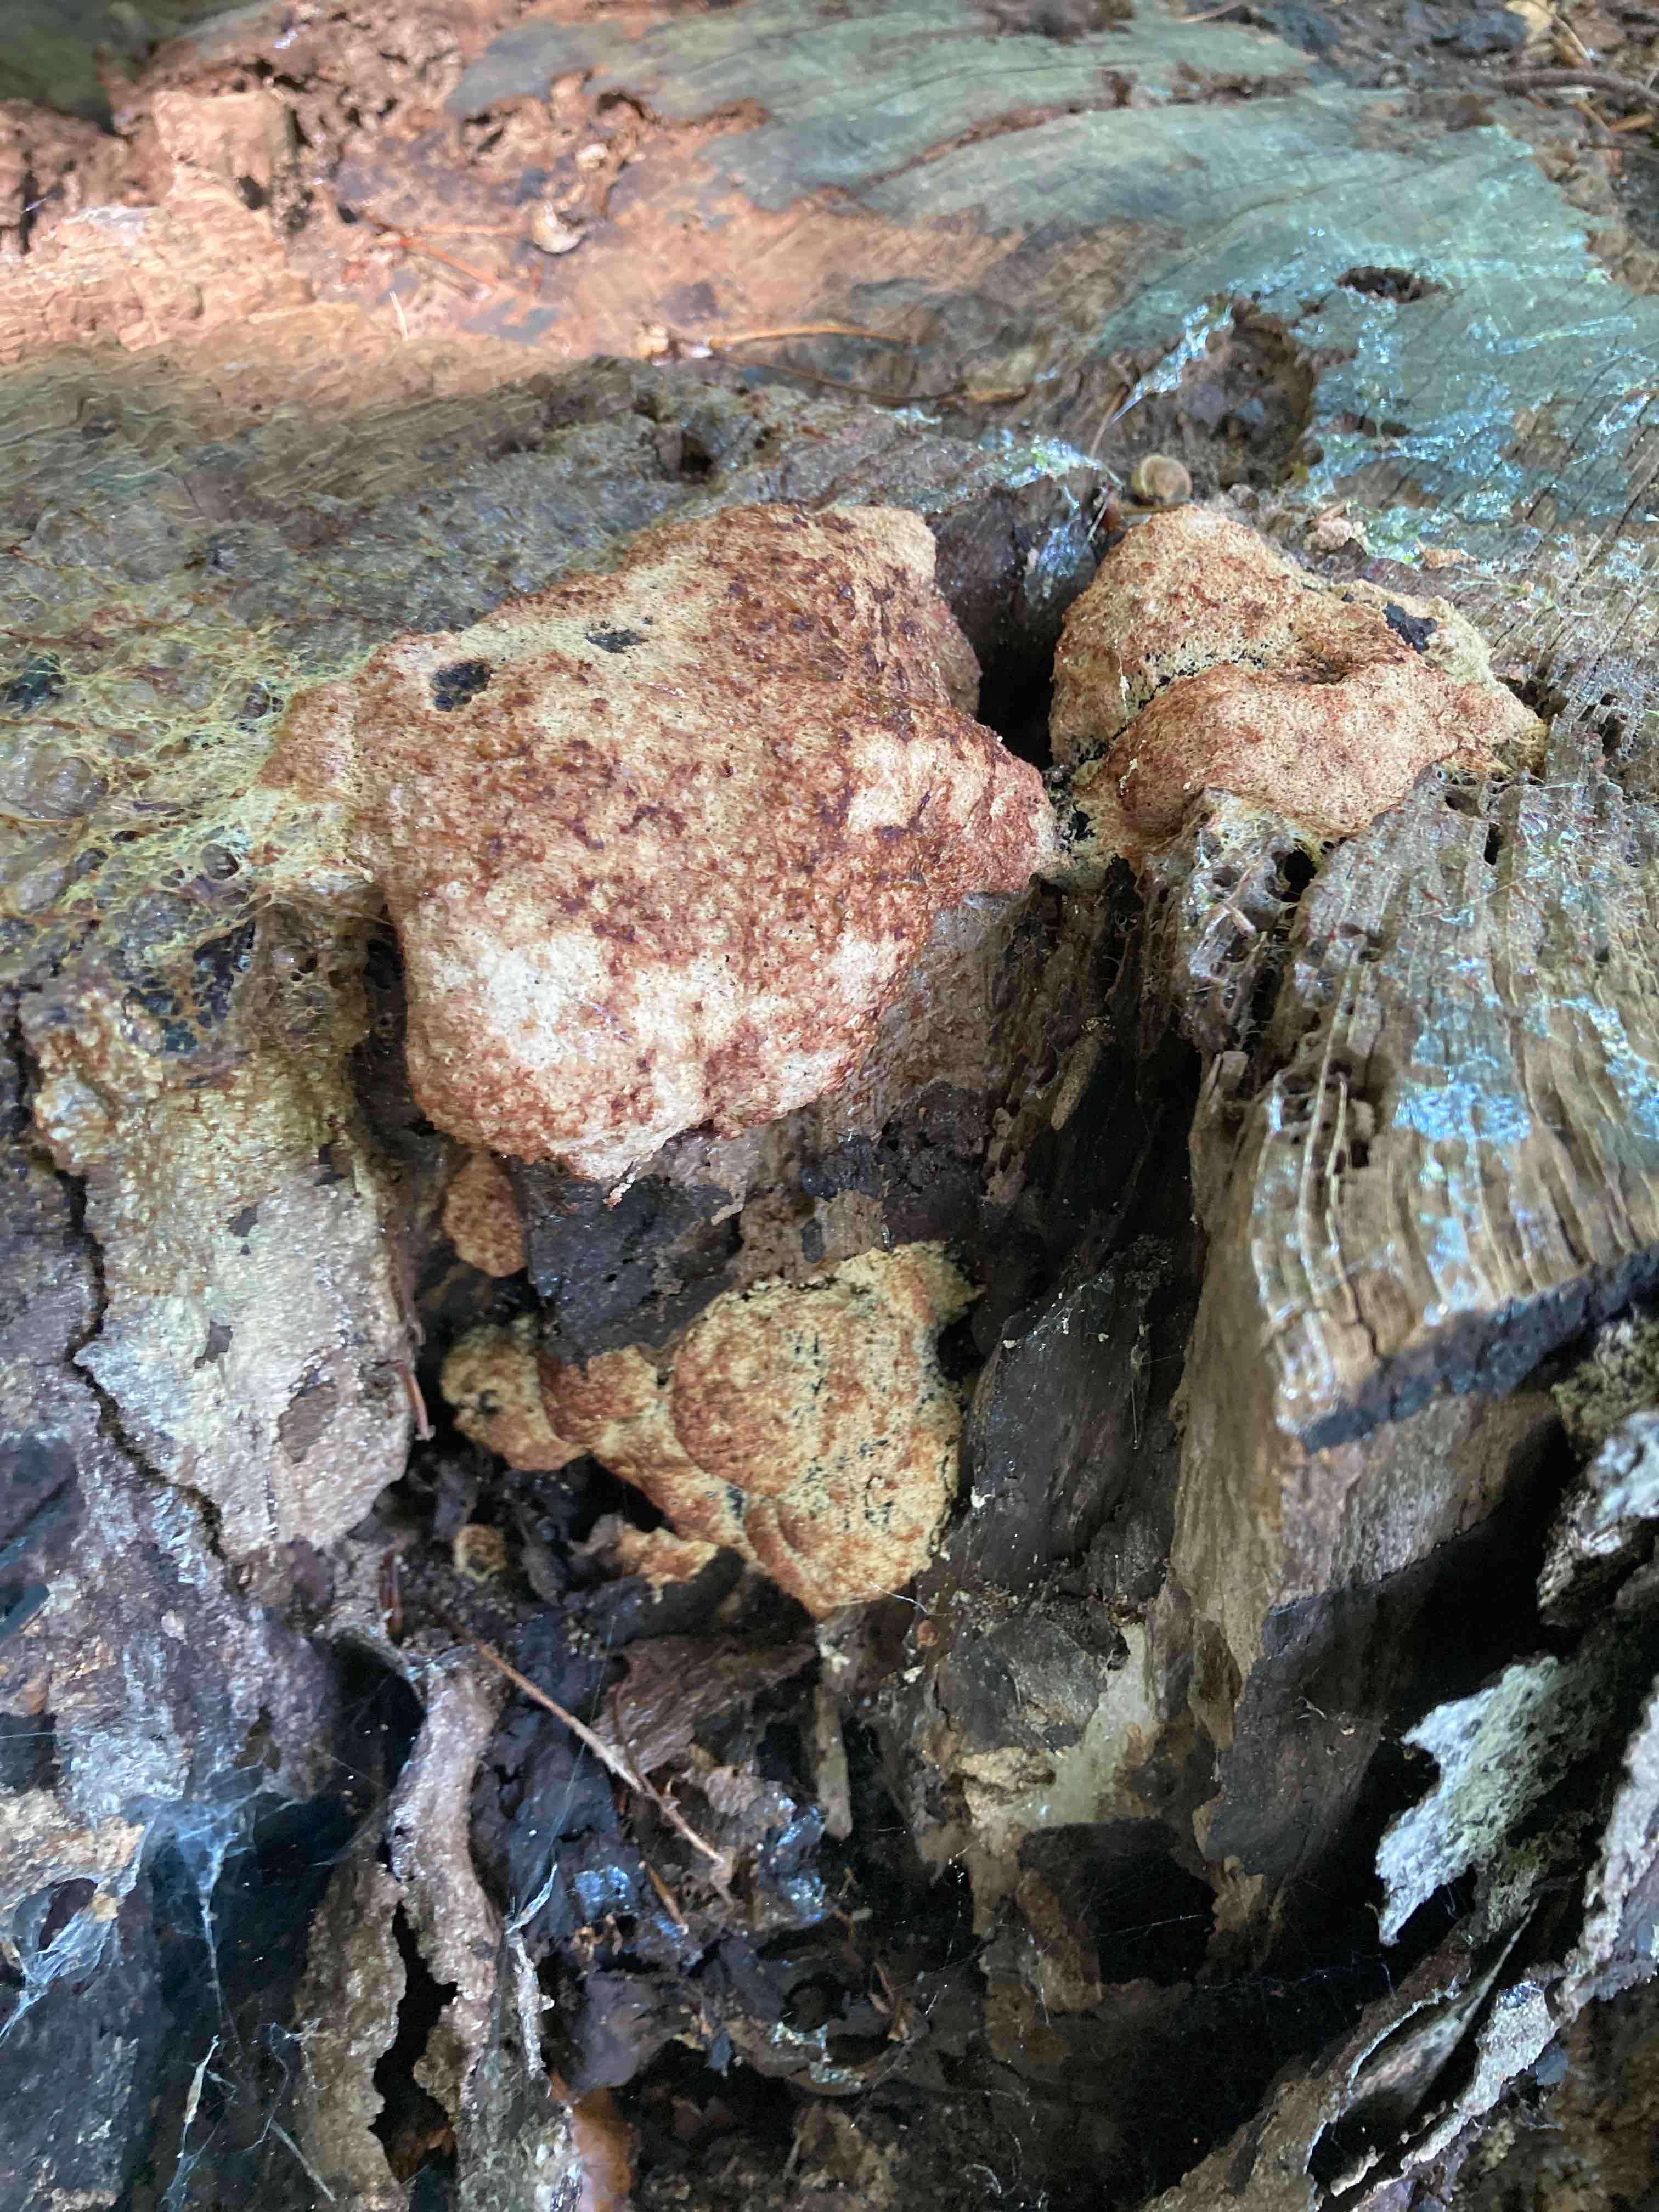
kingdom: Protozoa
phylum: Mycetozoa
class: Myxomycetes
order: Physarales
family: Physaraceae
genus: Fuligo
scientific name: Fuligo septica
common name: Dog vomit slime mold
